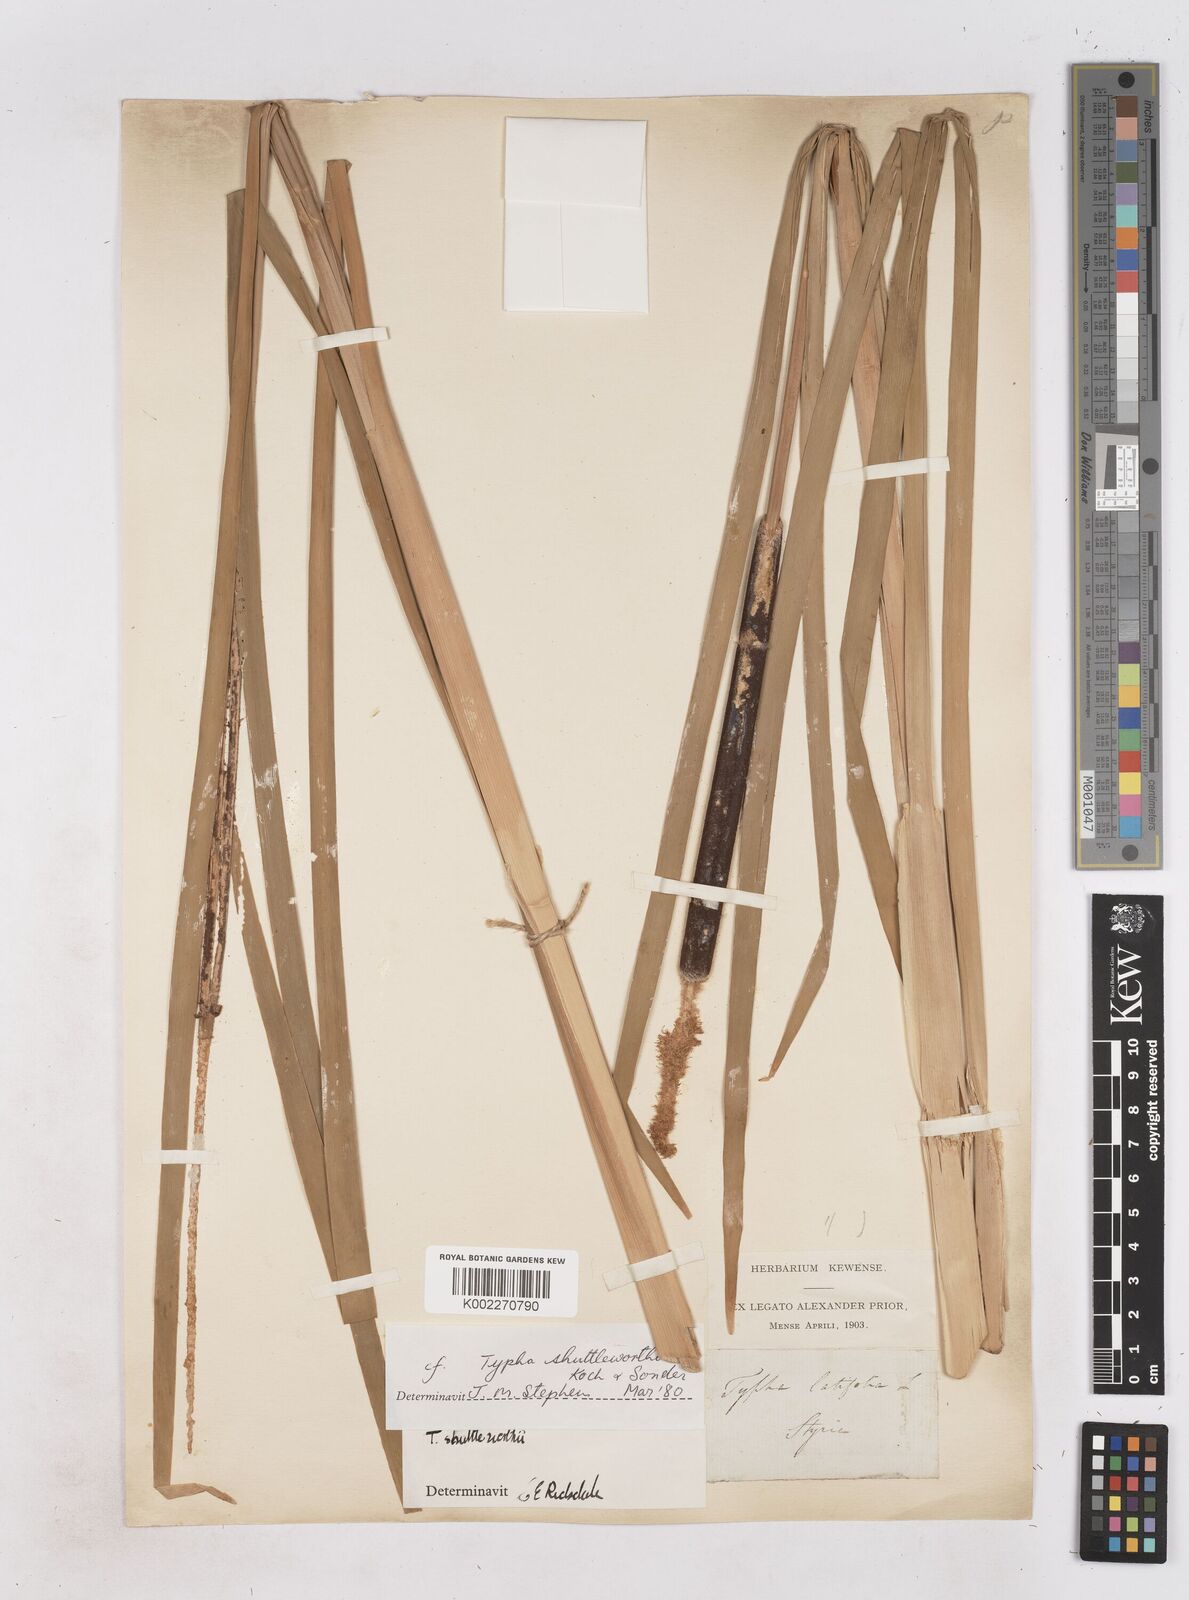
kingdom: Plantae
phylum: Tracheophyta
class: Liliopsida
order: Poales
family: Typhaceae
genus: Typha
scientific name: Typha shuttleworthii
